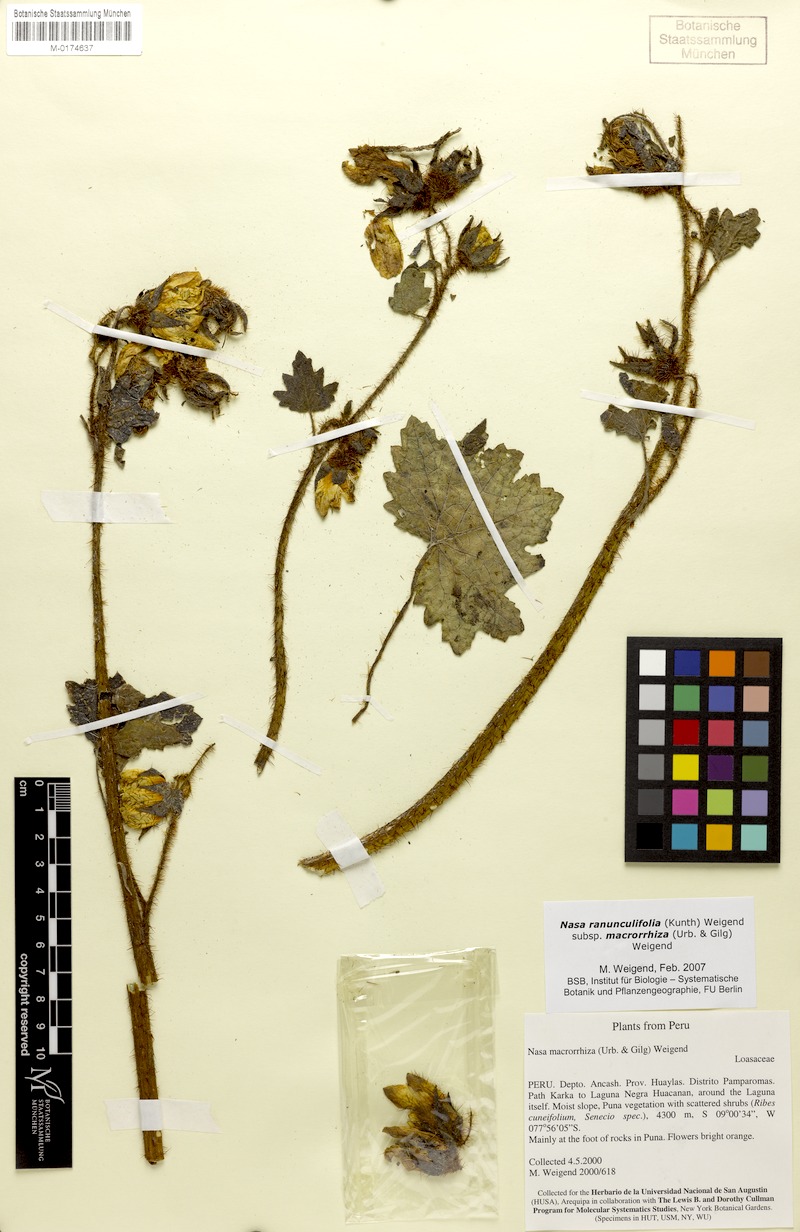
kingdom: Plantae
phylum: Tracheophyta
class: Magnoliopsida
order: Cornales
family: Loasaceae
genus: Nasa
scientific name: Nasa ranunculifolia
